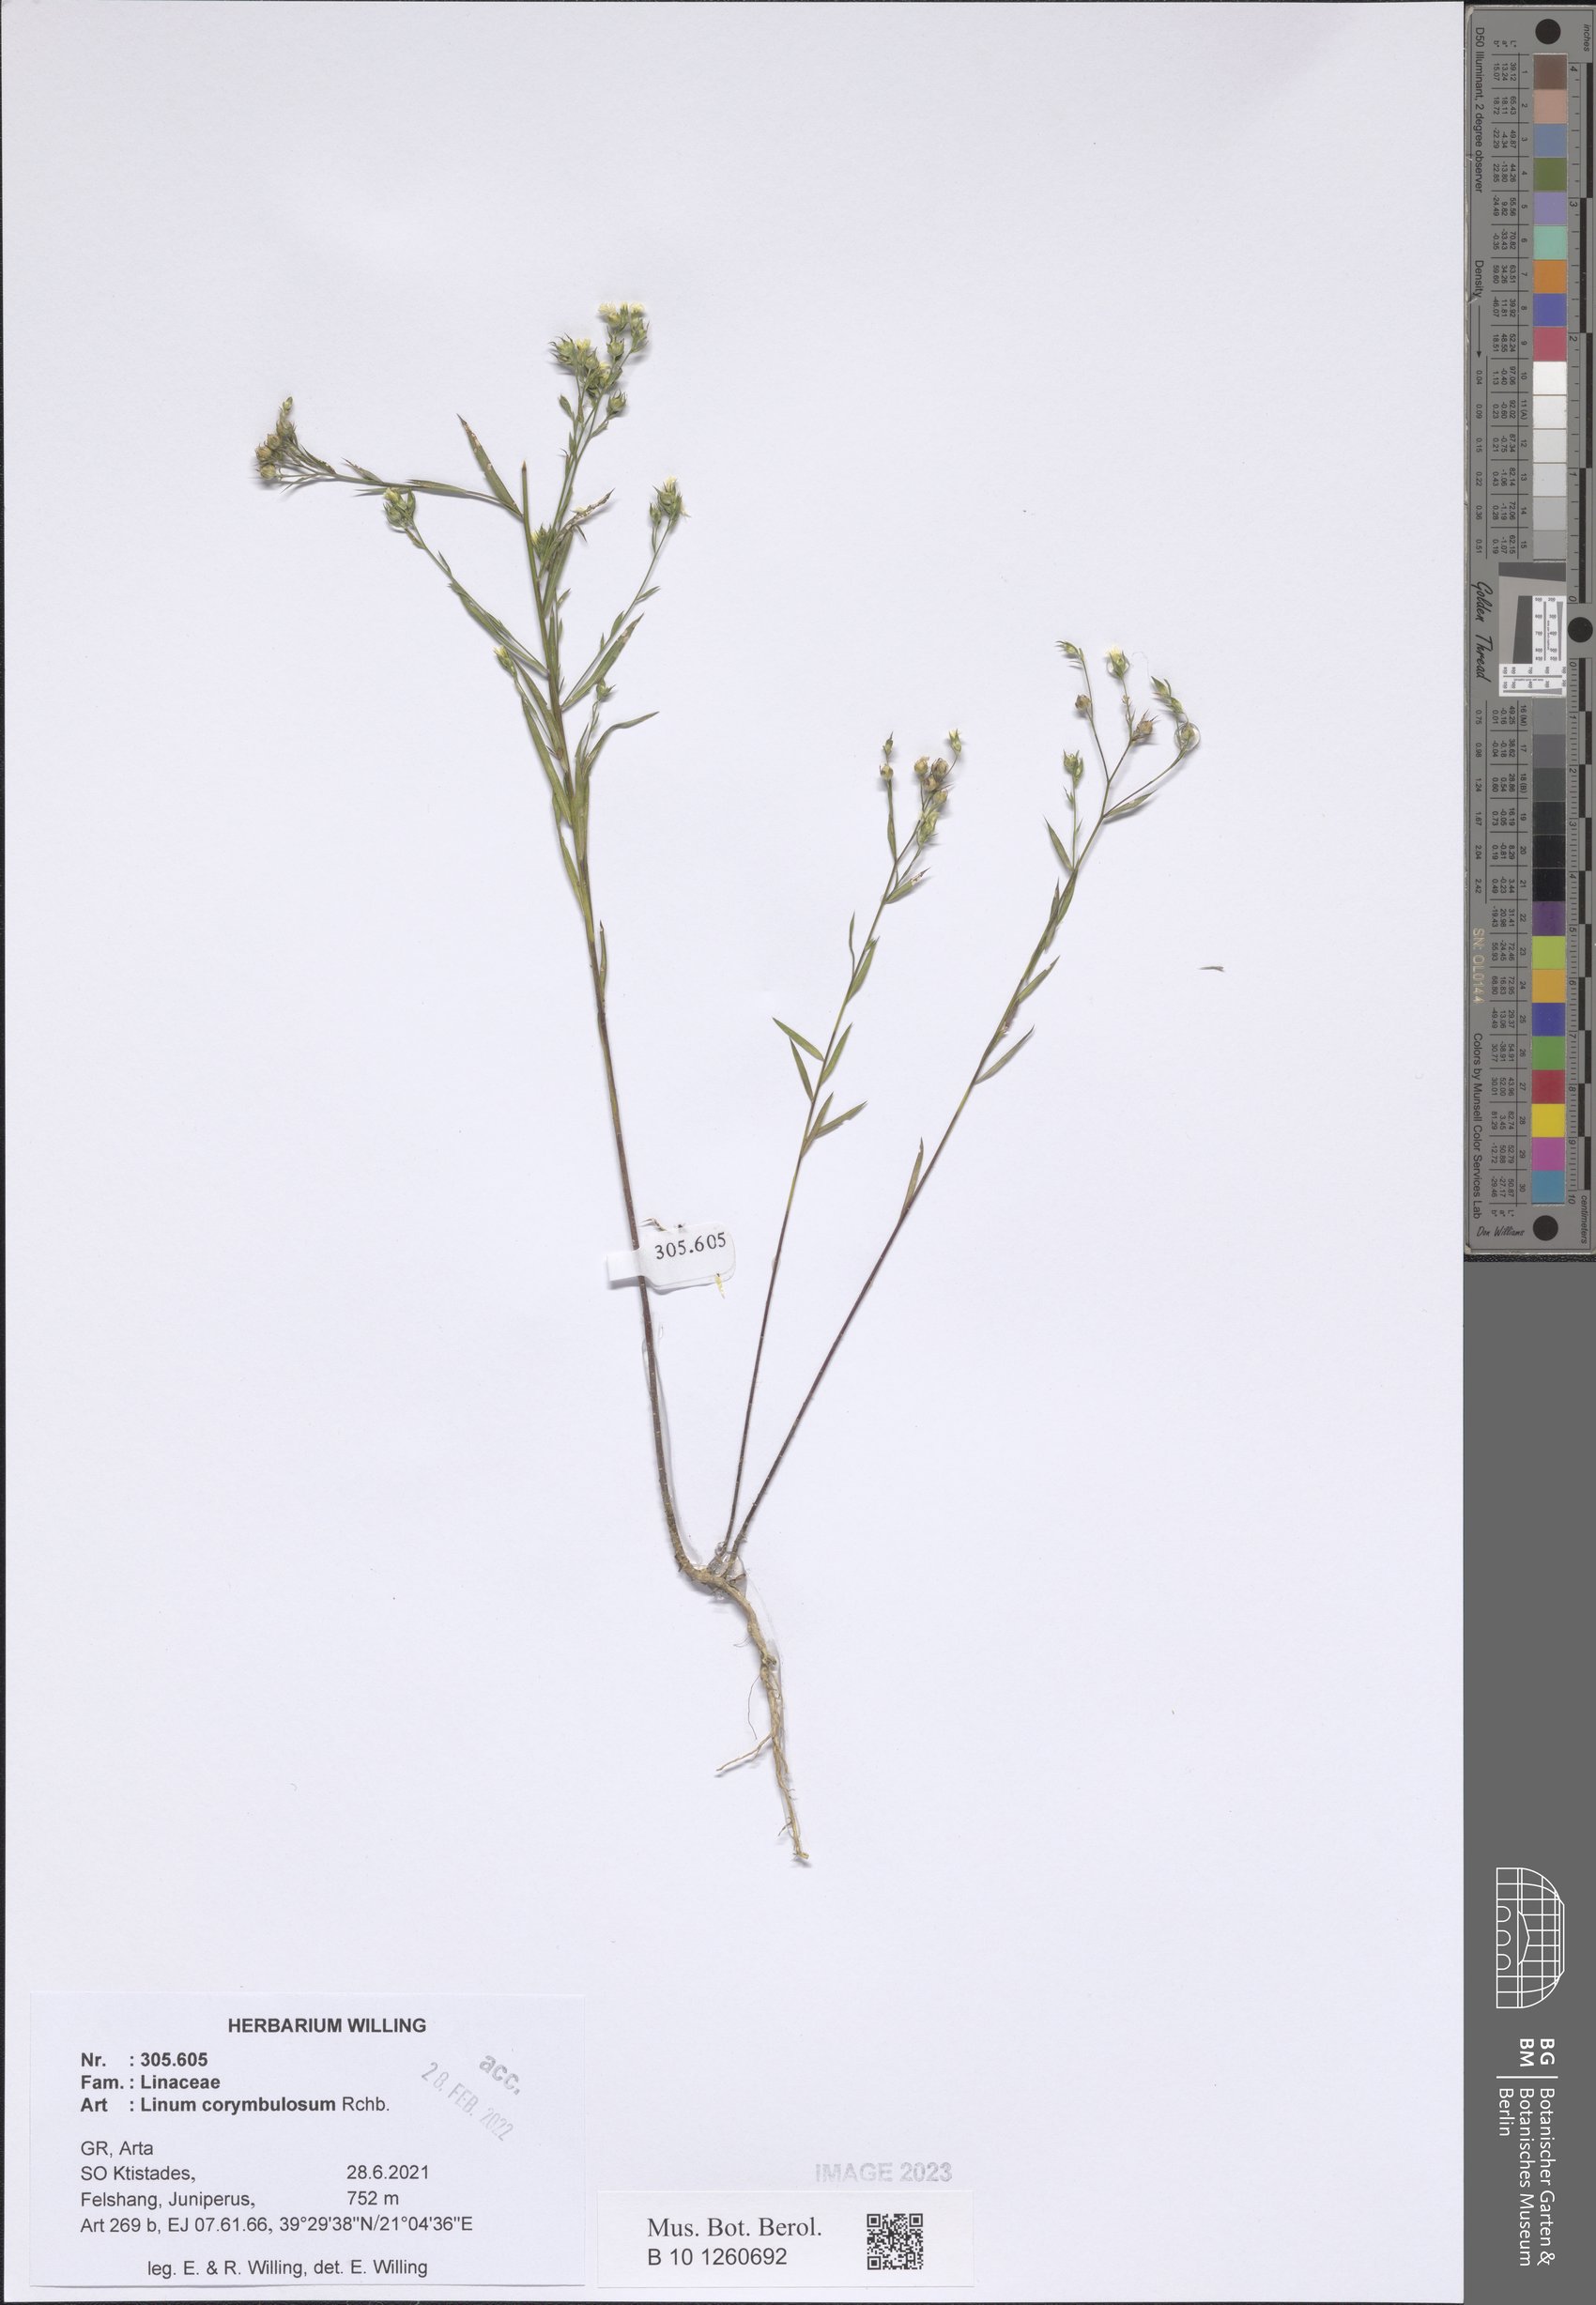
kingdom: Plantae
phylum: Tracheophyta
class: Magnoliopsida
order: Malpighiales
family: Linaceae
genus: Linum
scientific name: Linum corymbulosum
